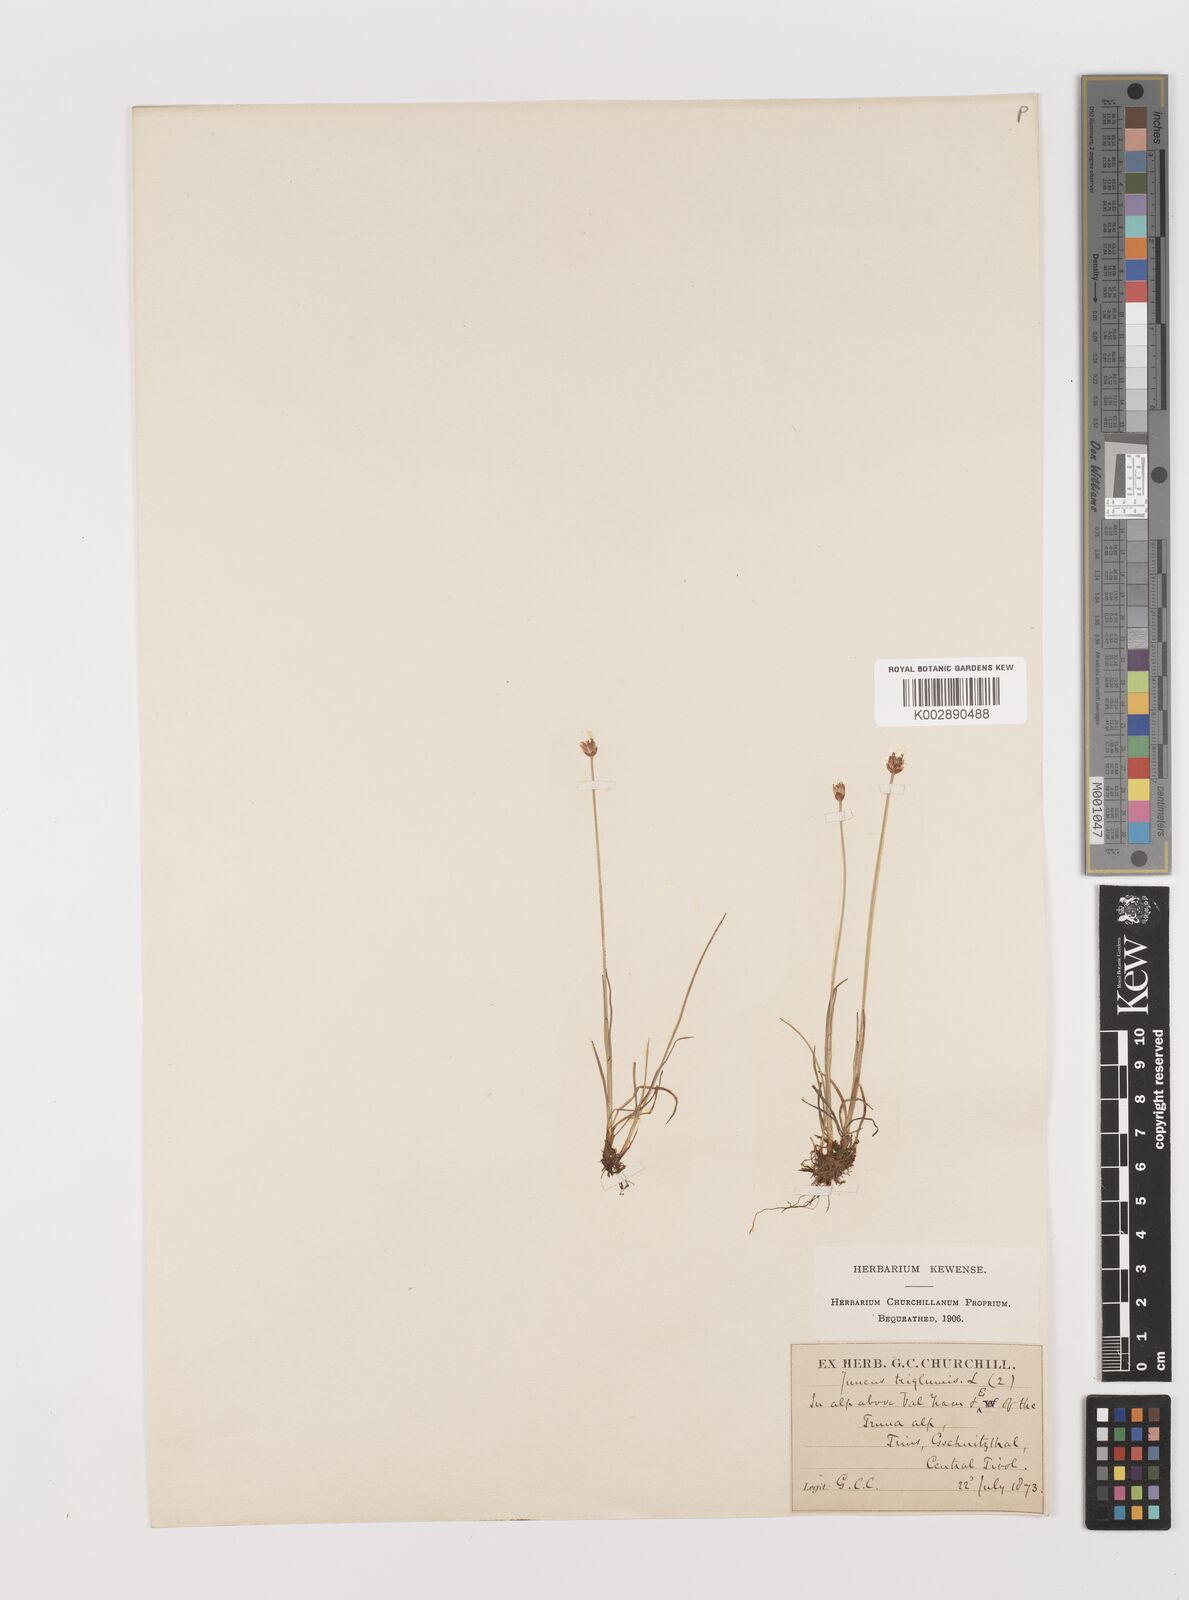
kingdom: Plantae
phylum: Tracheophyta
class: Liliopsida
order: Poales
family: Juncaceae
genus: Juncus
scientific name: Juncus triglumis
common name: Three-flowered rush
